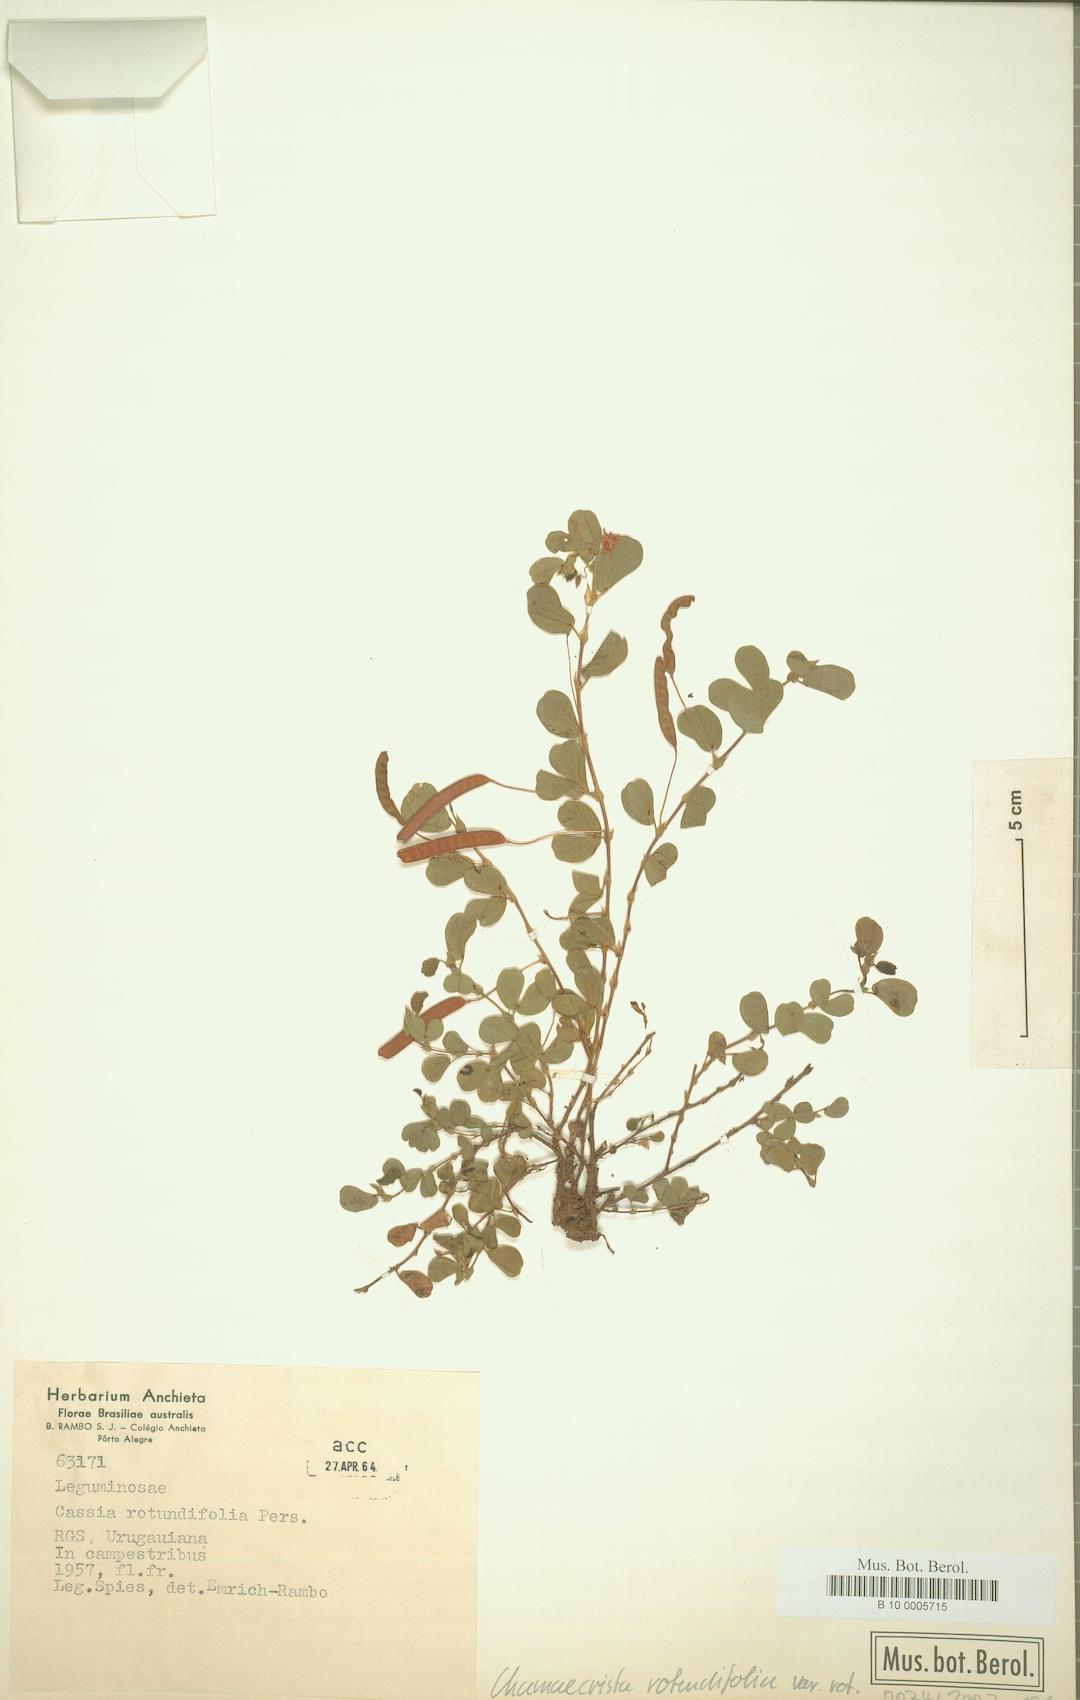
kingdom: Plantae
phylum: Tracheophyta
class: Magnoliopsida
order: Fabales
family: Fabaceae
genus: Chamaecrista
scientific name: Chamaecrista rotundifolia
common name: Round-leaf cassia
